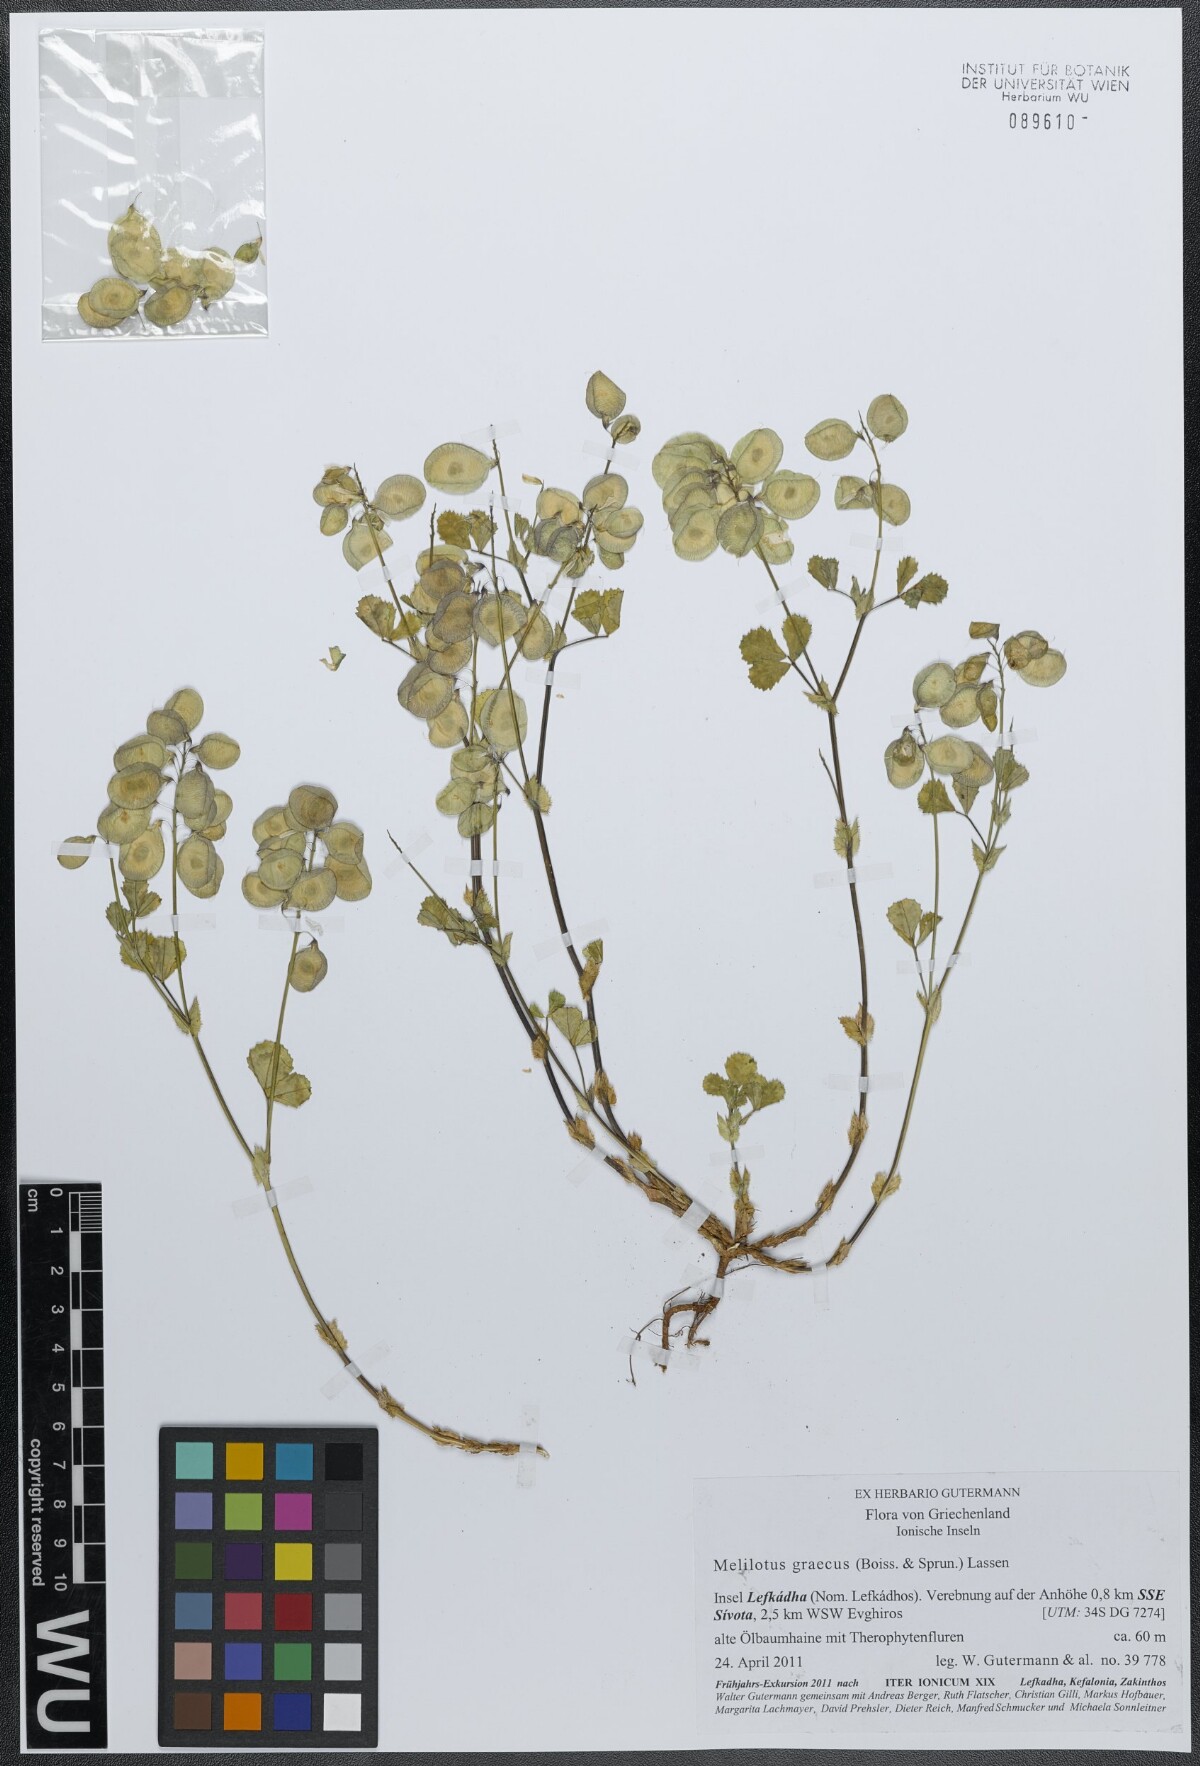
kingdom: Plantae
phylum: Tracheophyta
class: Magnoliopsida
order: Fabales
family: Fabaceae
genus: Trigonella
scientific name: Trigonella graeca
